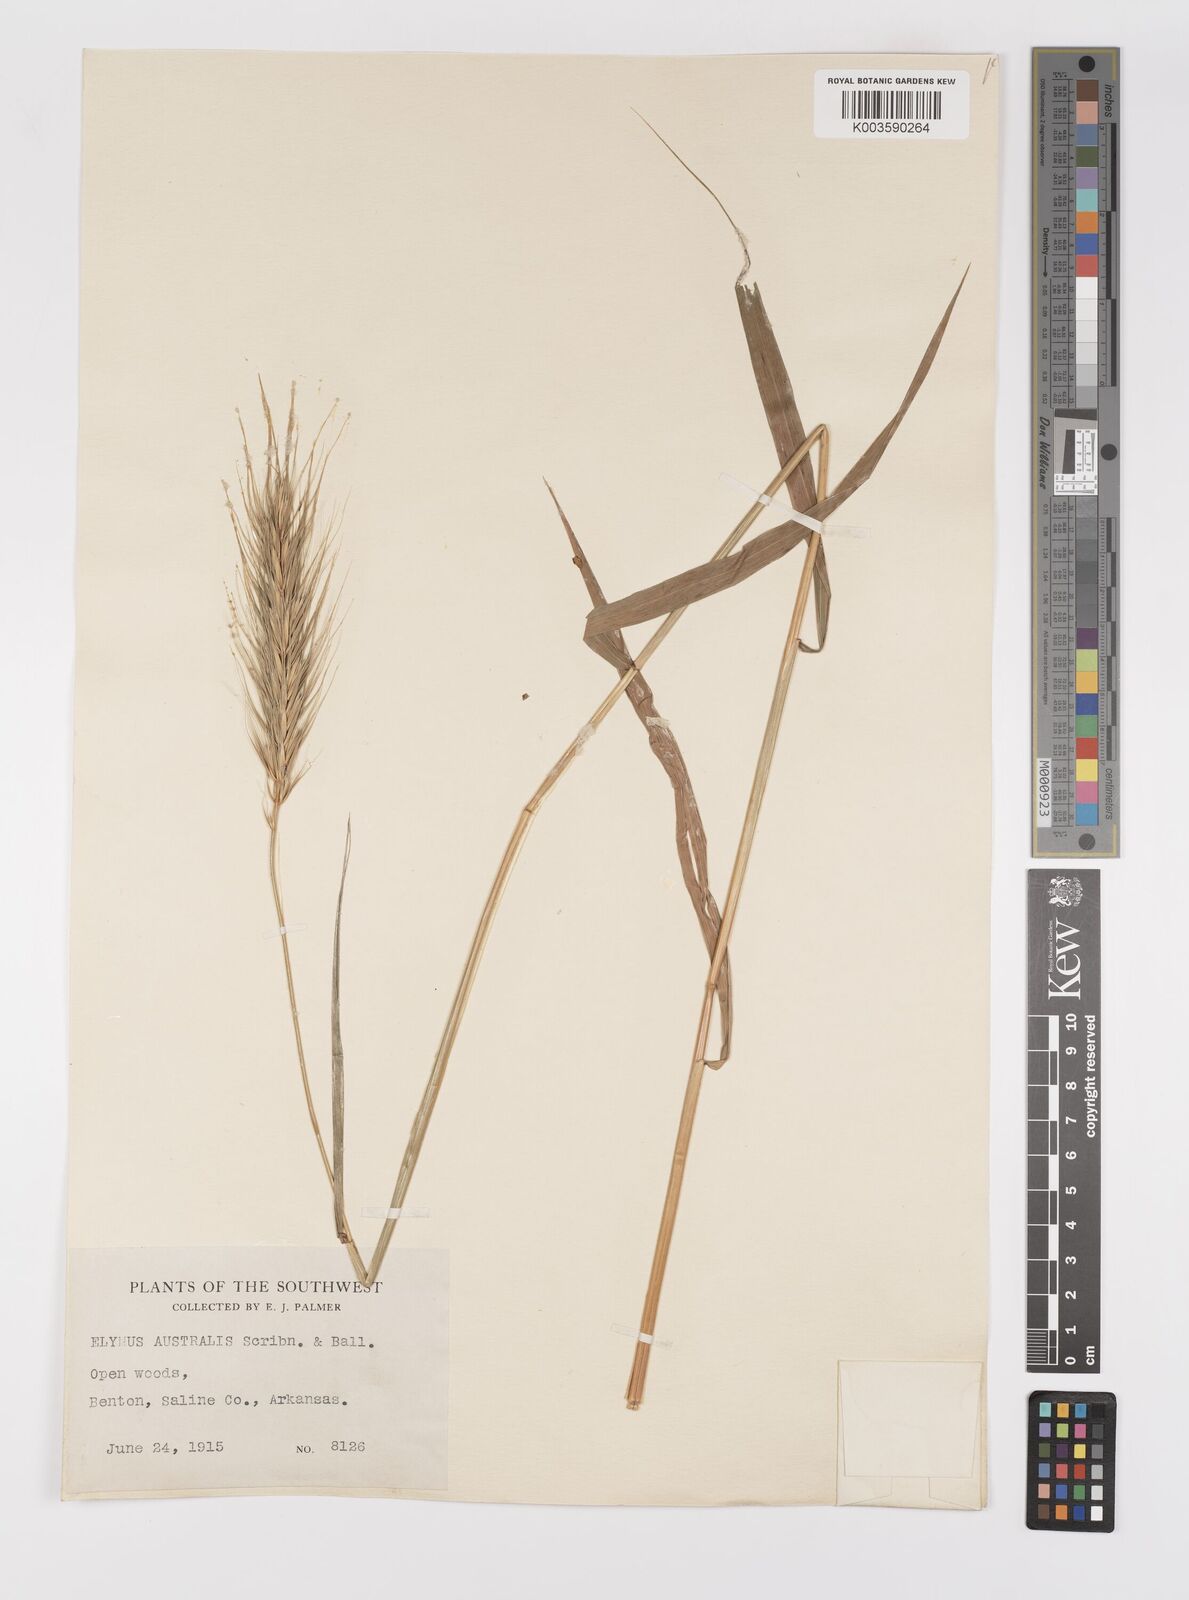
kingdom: Plantae
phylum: Tracheophyta
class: Liliopsida
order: Poales
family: Poaceae
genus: Elymus
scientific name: Elymus
